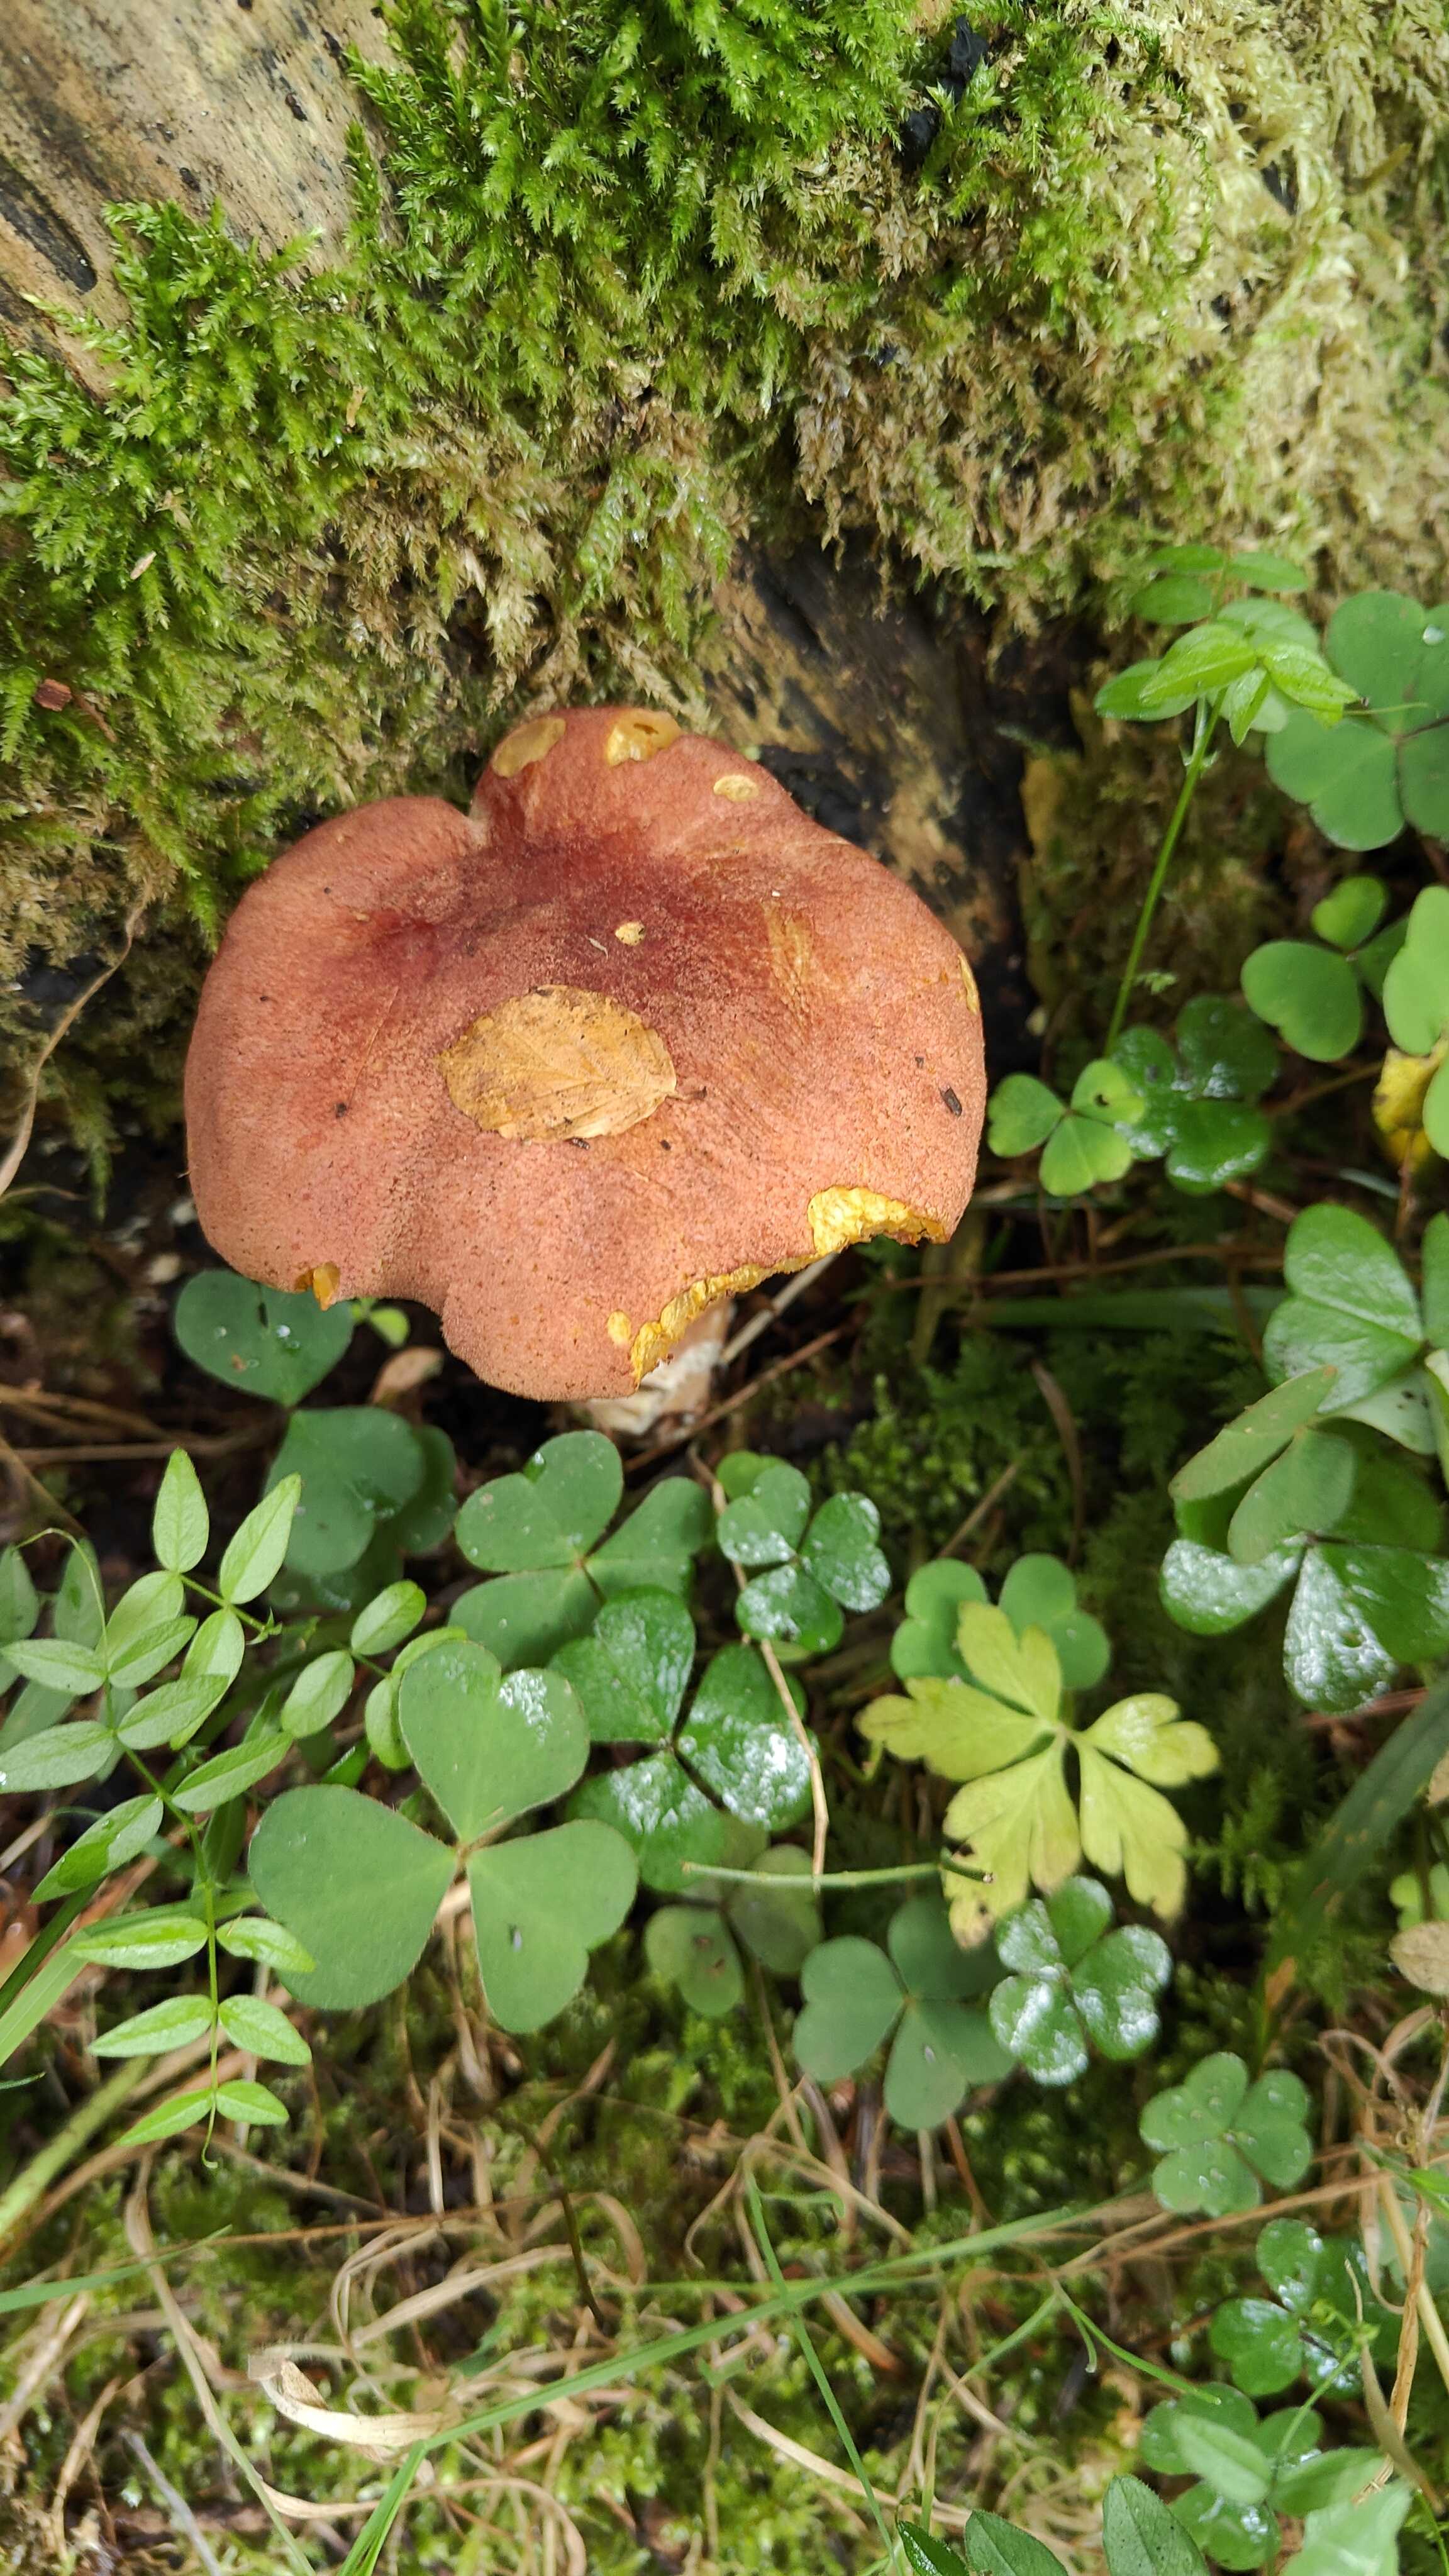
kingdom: Fungi
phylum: Basidiomycota
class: Agaricomycetes
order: Agaricales
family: Tricholomataceae
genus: Tricholomopsis
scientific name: Tricholomopsis rutilans
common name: purpur-væbnerhat
